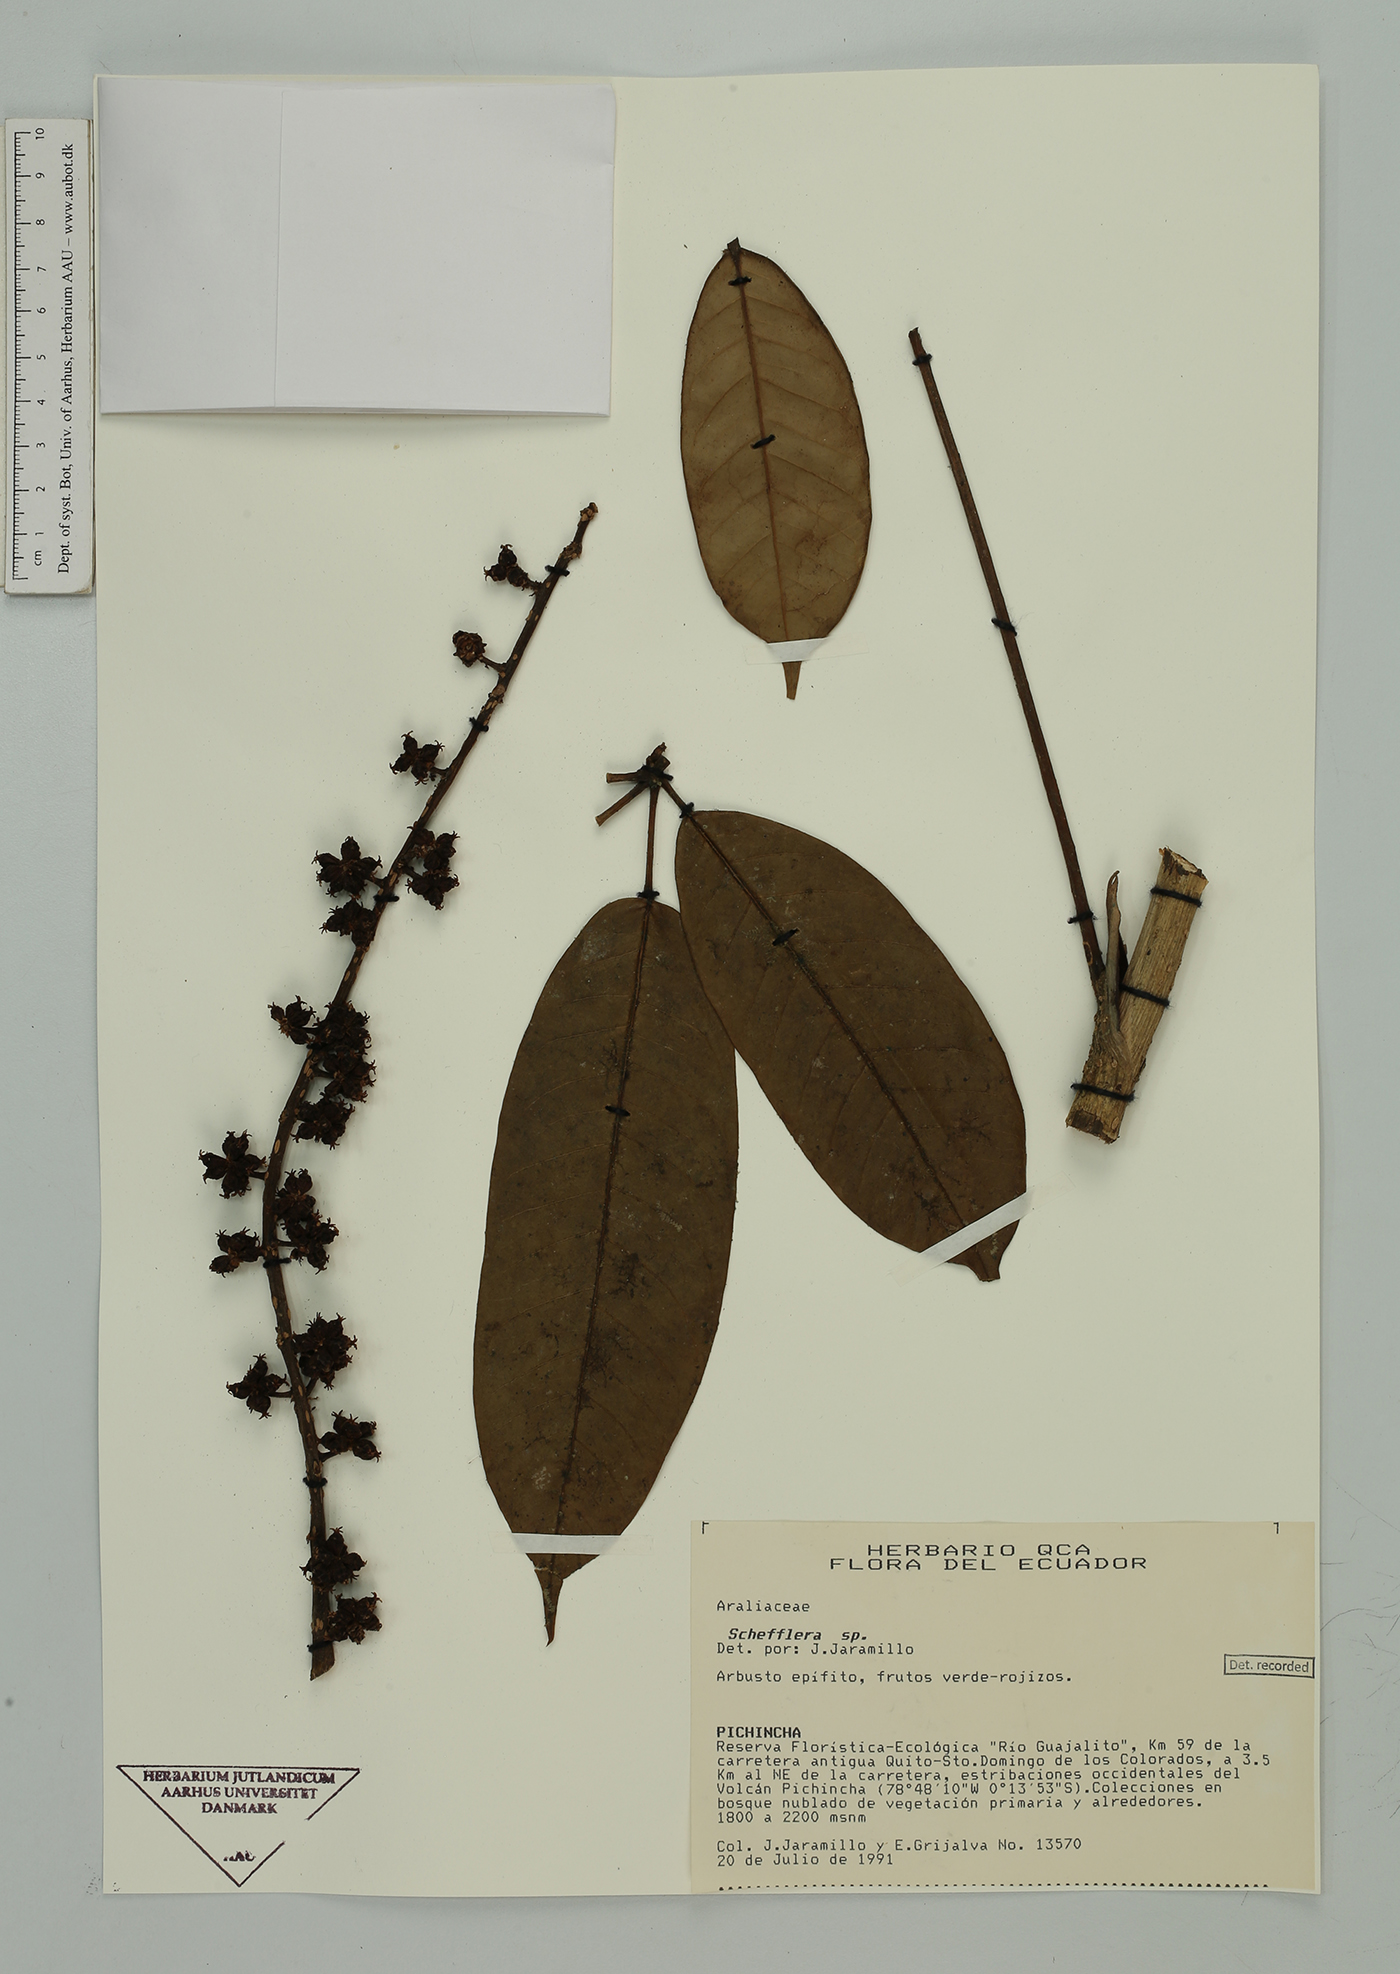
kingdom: Plantae
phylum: Tracheophyta
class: Magnoliopsida
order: Apiales
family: Araliaceae
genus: Sciodaphyllum
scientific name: Sciodaphyllum
